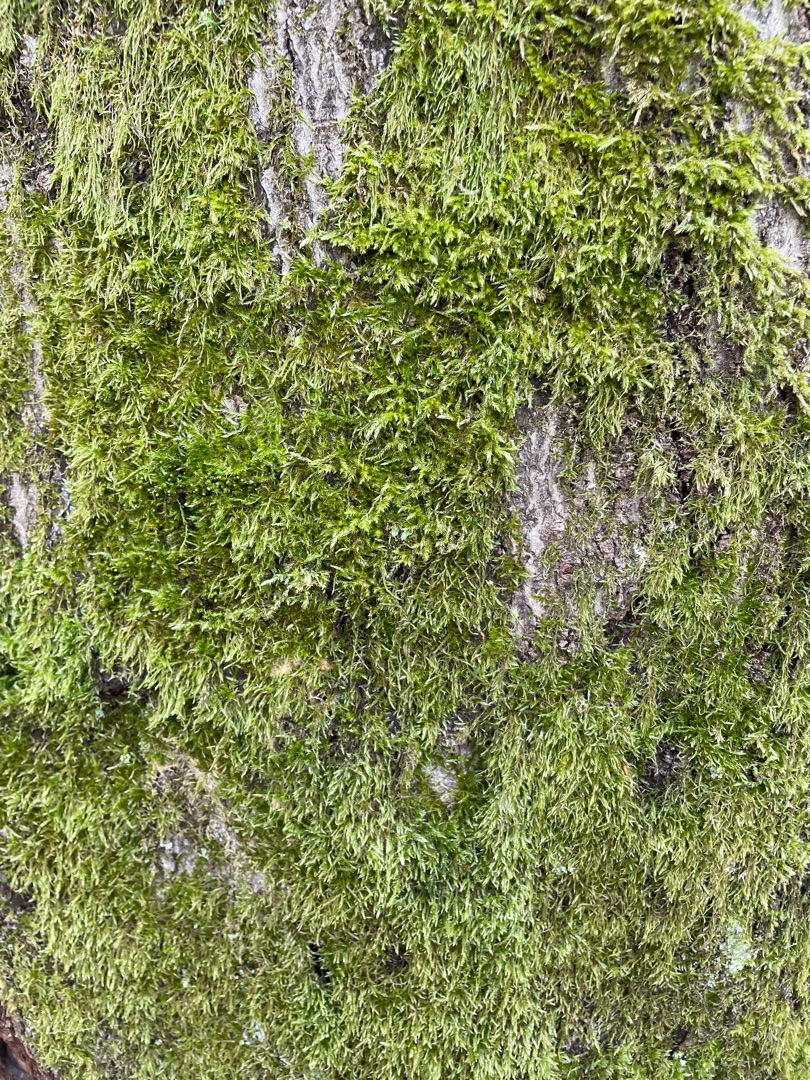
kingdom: Plantae
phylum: Bryophyta
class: Bryopsida
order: Hypnales
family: Hypnaceae
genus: Hypnum
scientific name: Hypnum
